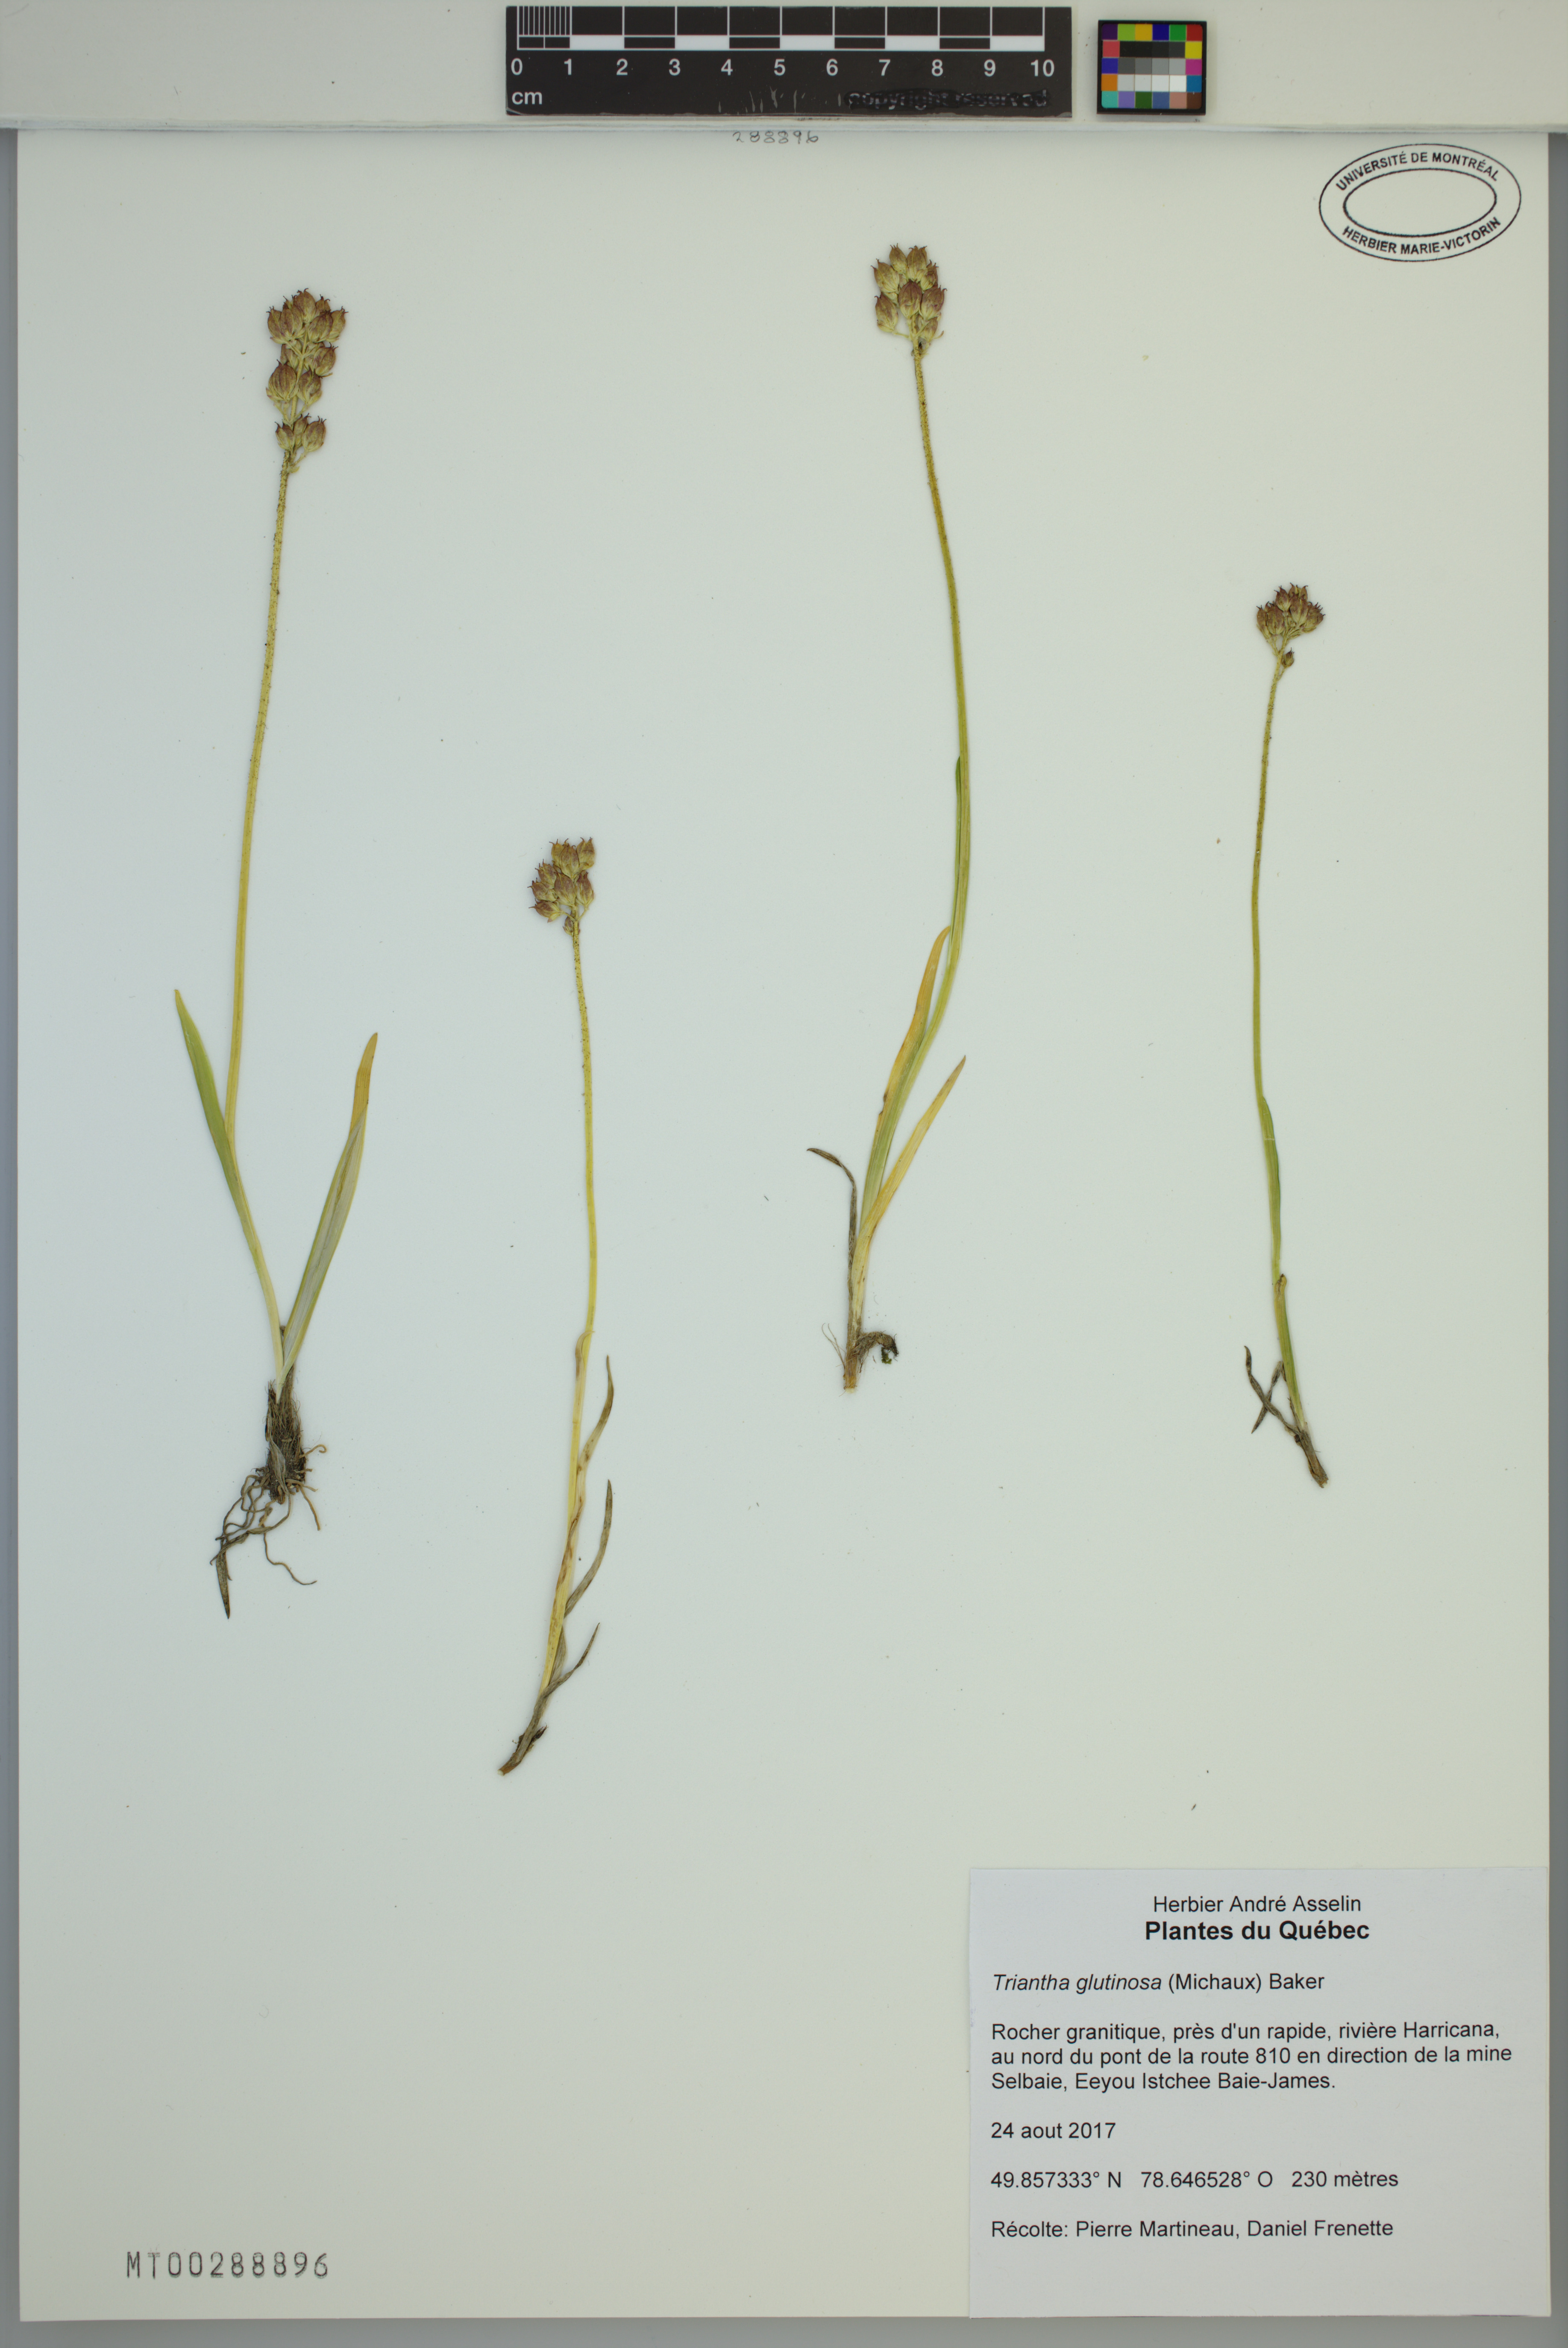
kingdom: Plantae
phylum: Tracheophyta
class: Liliopsida
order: Alismatales
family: Tofieldiaceae
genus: Triantha
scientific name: Triantha glutinosa
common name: Glutinous tofieldia
